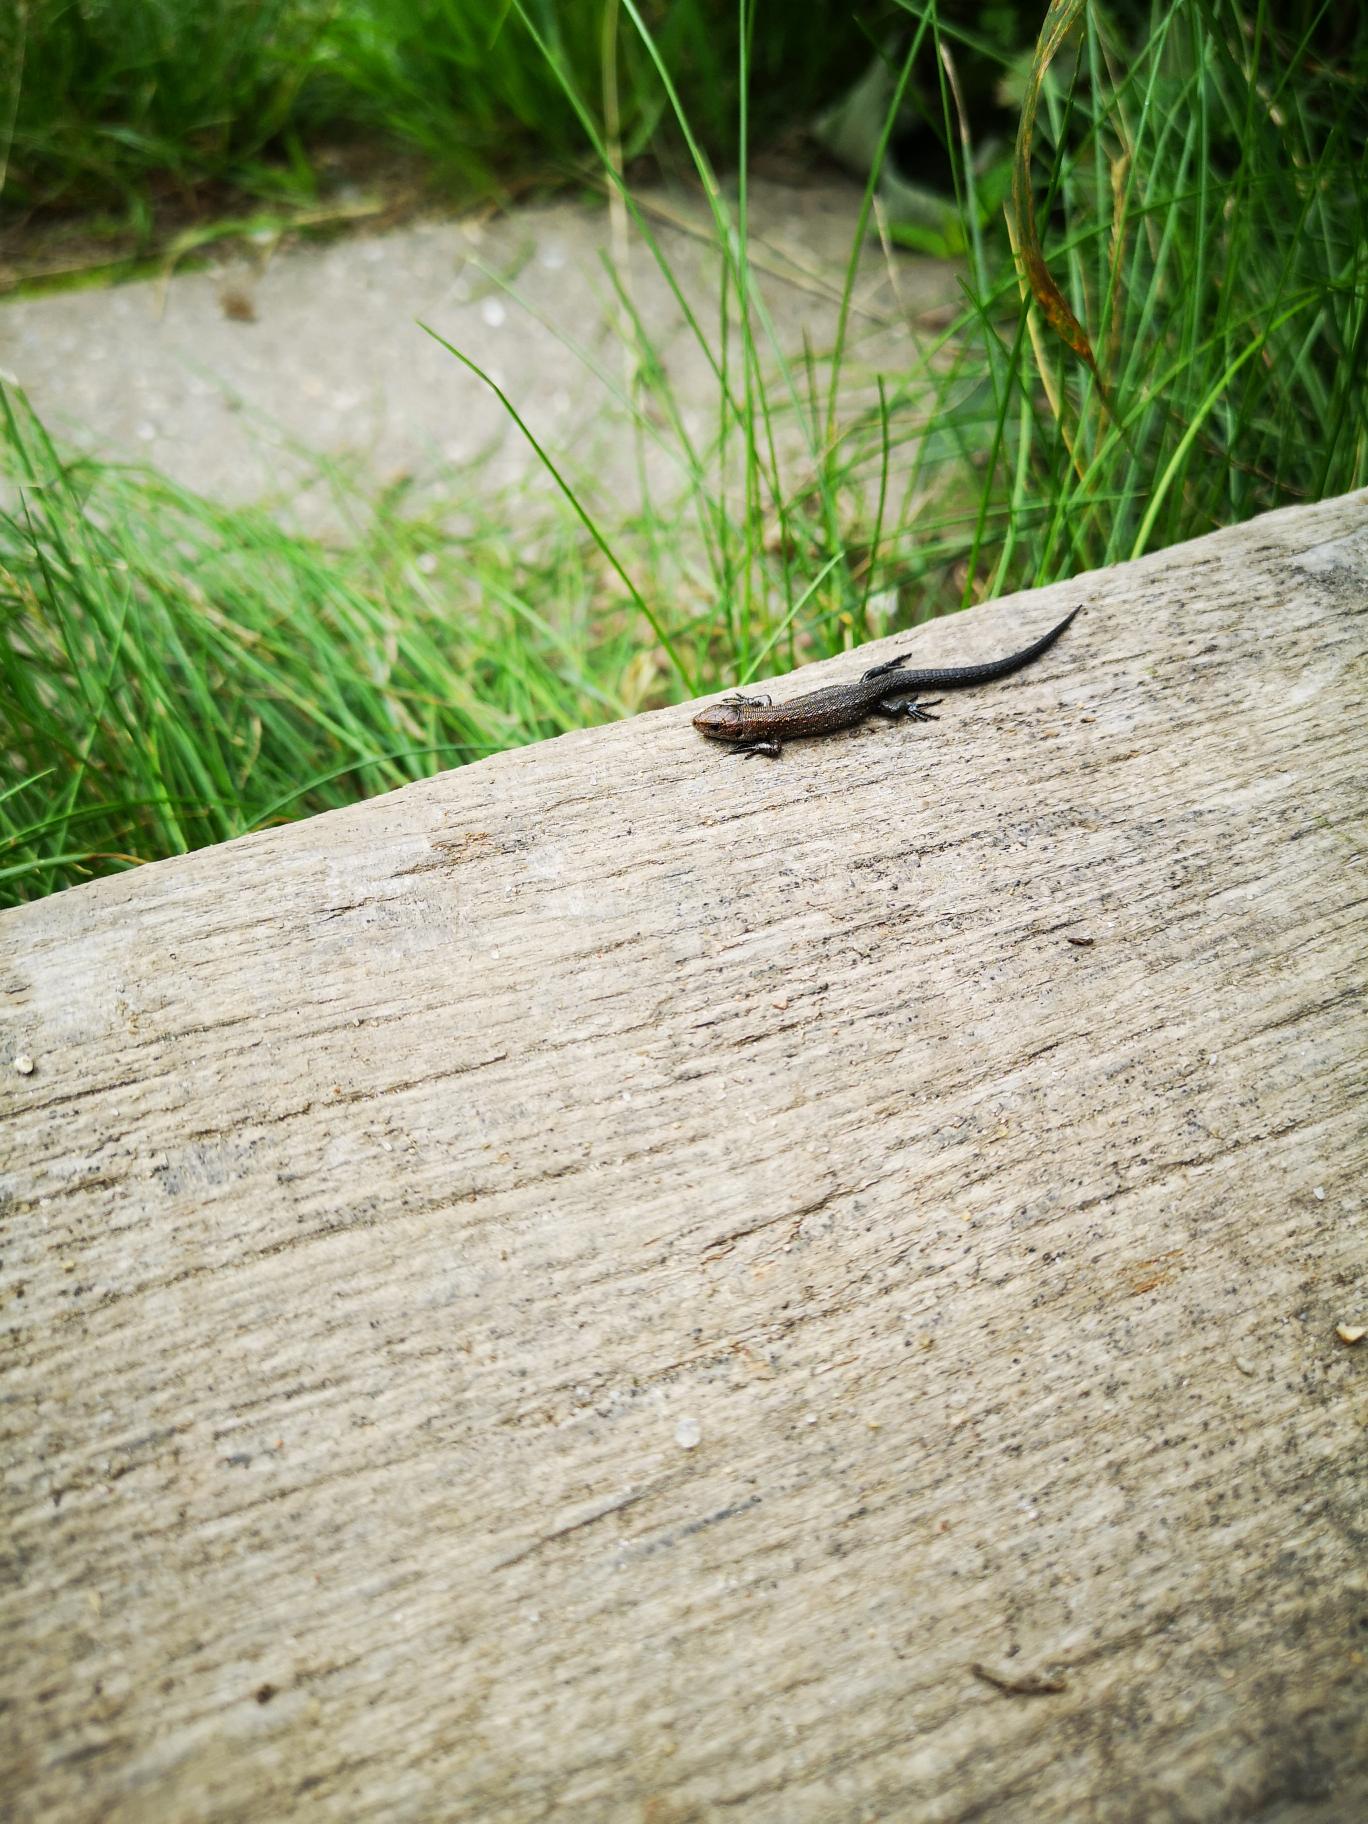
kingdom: Animalia
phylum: Chordata
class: Squamata
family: Lacertidae
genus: Zootoca
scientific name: Zootoca vivipara
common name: Skovfirben
